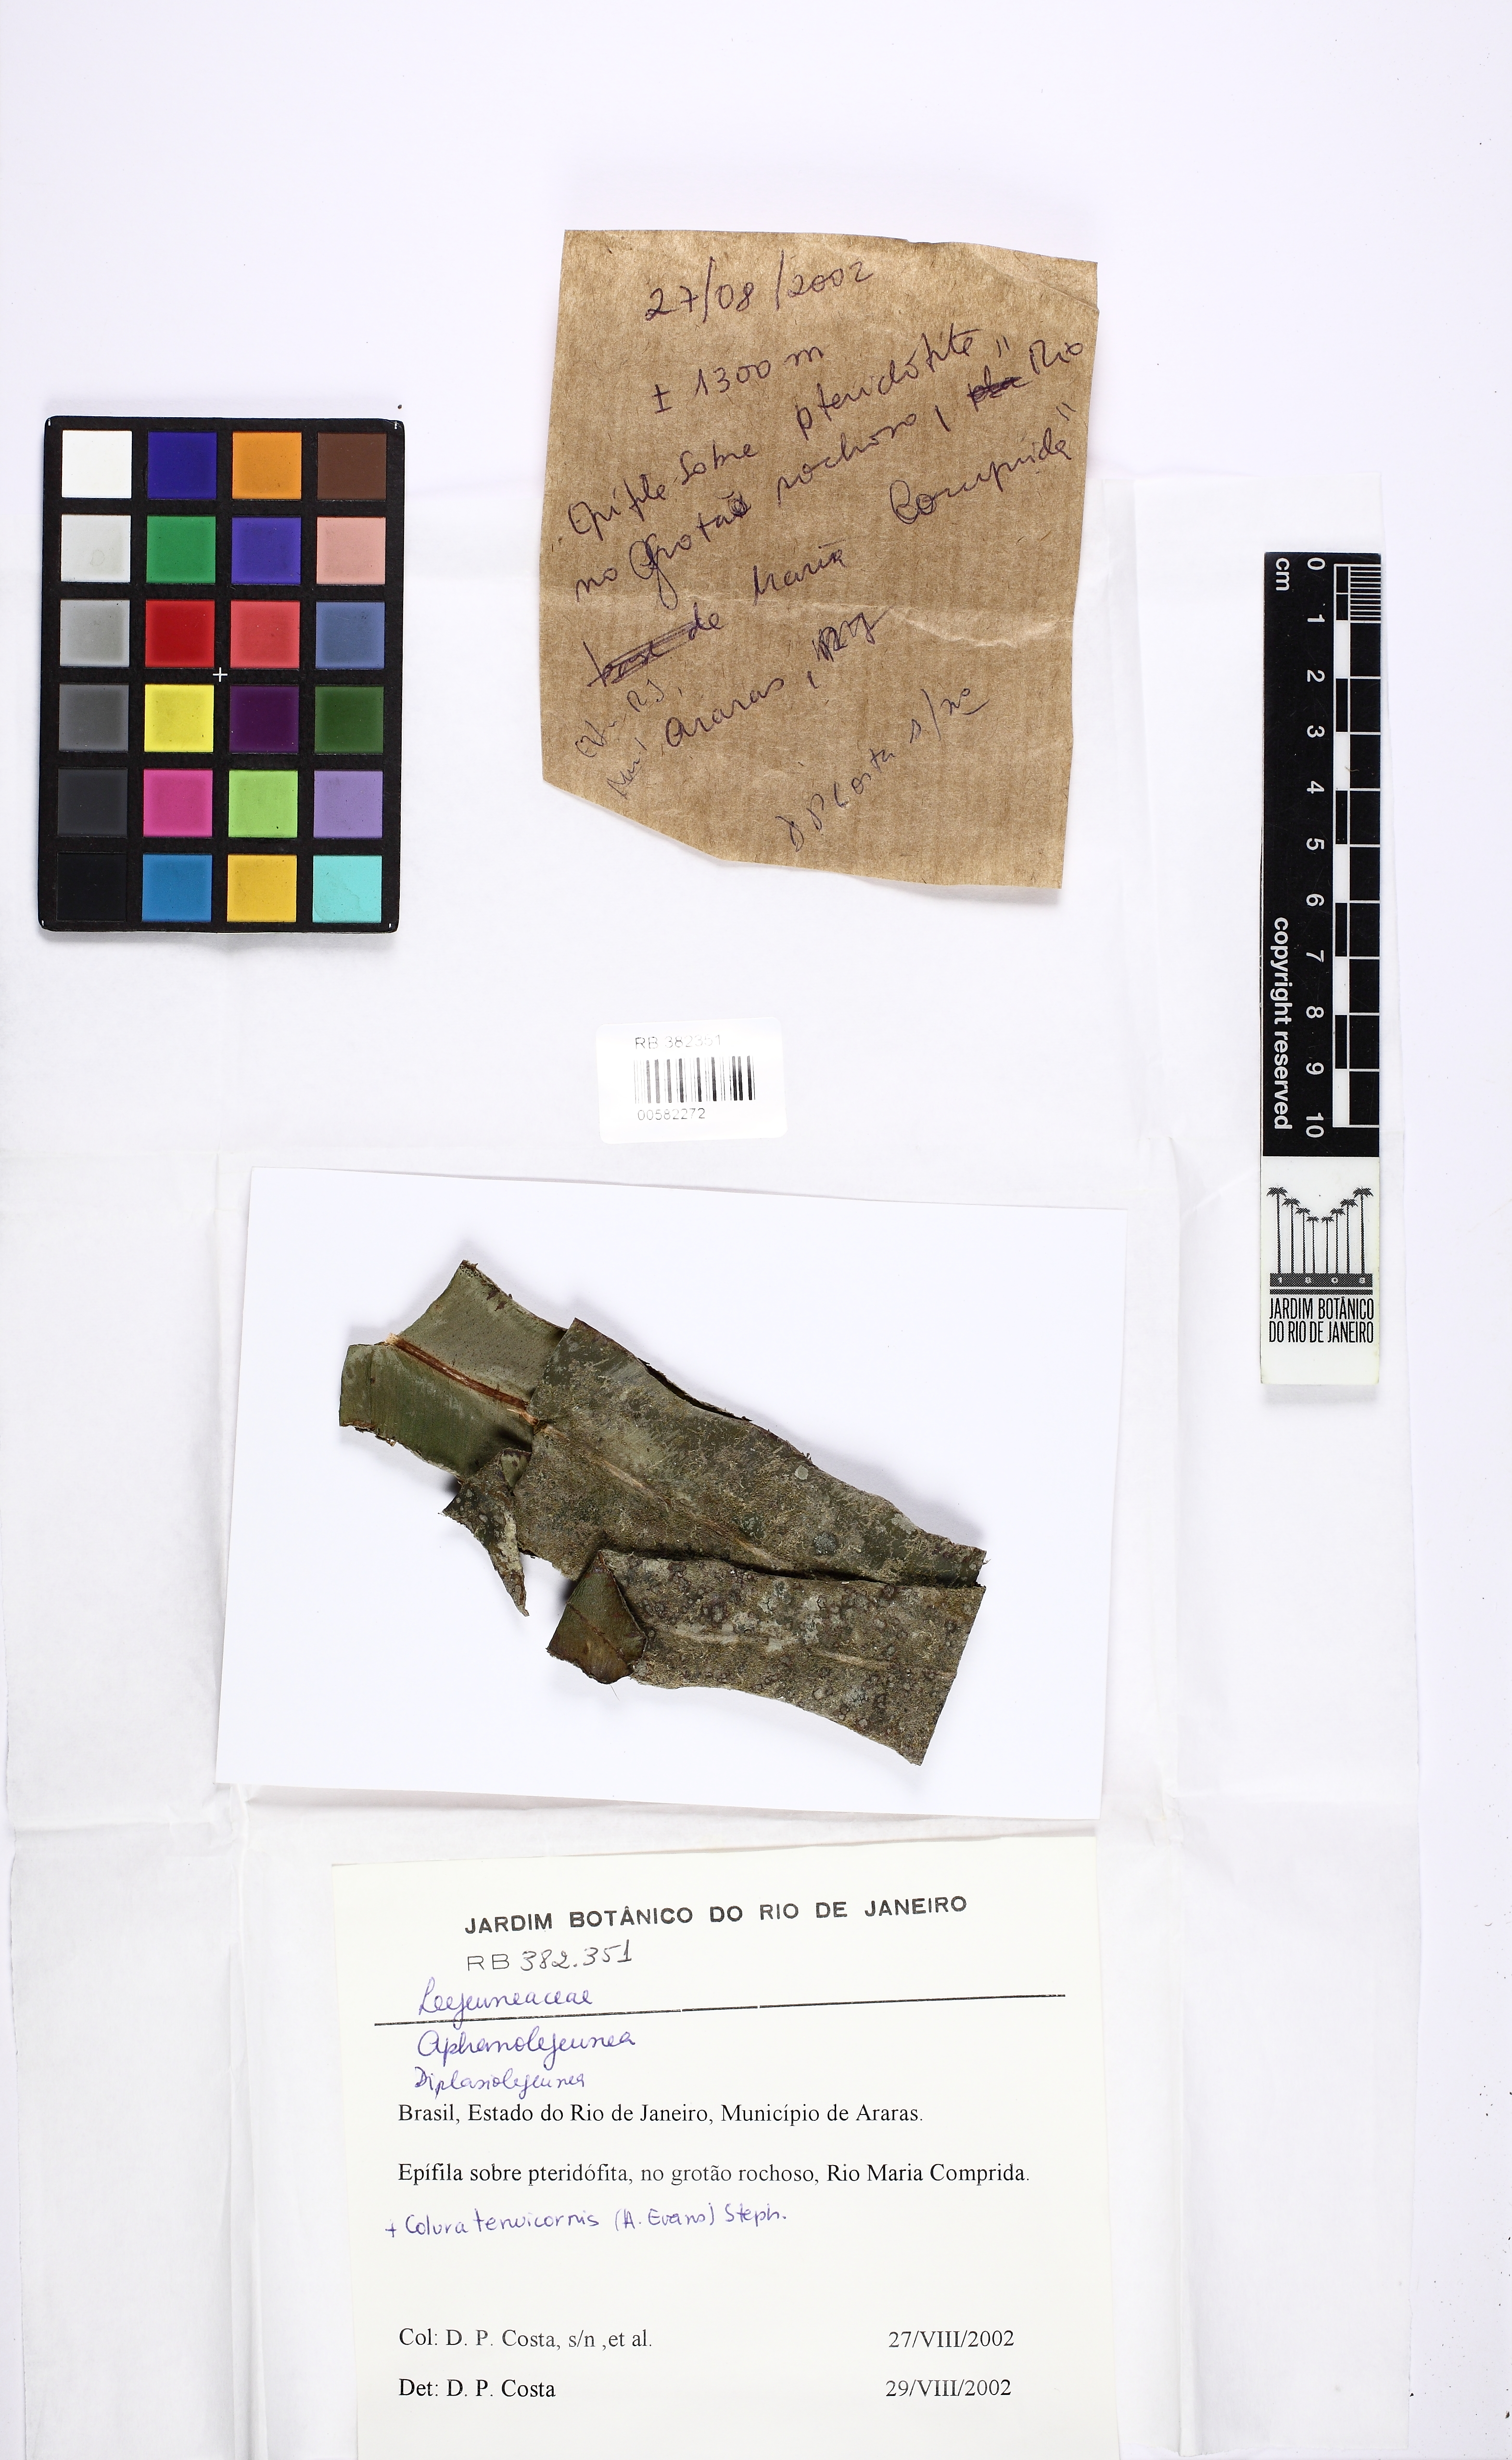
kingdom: Plantae
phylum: Marchantiophyta
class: Jungermanniopsida
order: Porellales
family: Lejeuneaceae
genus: Aphanolejeunea
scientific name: Aphanolejeunea
